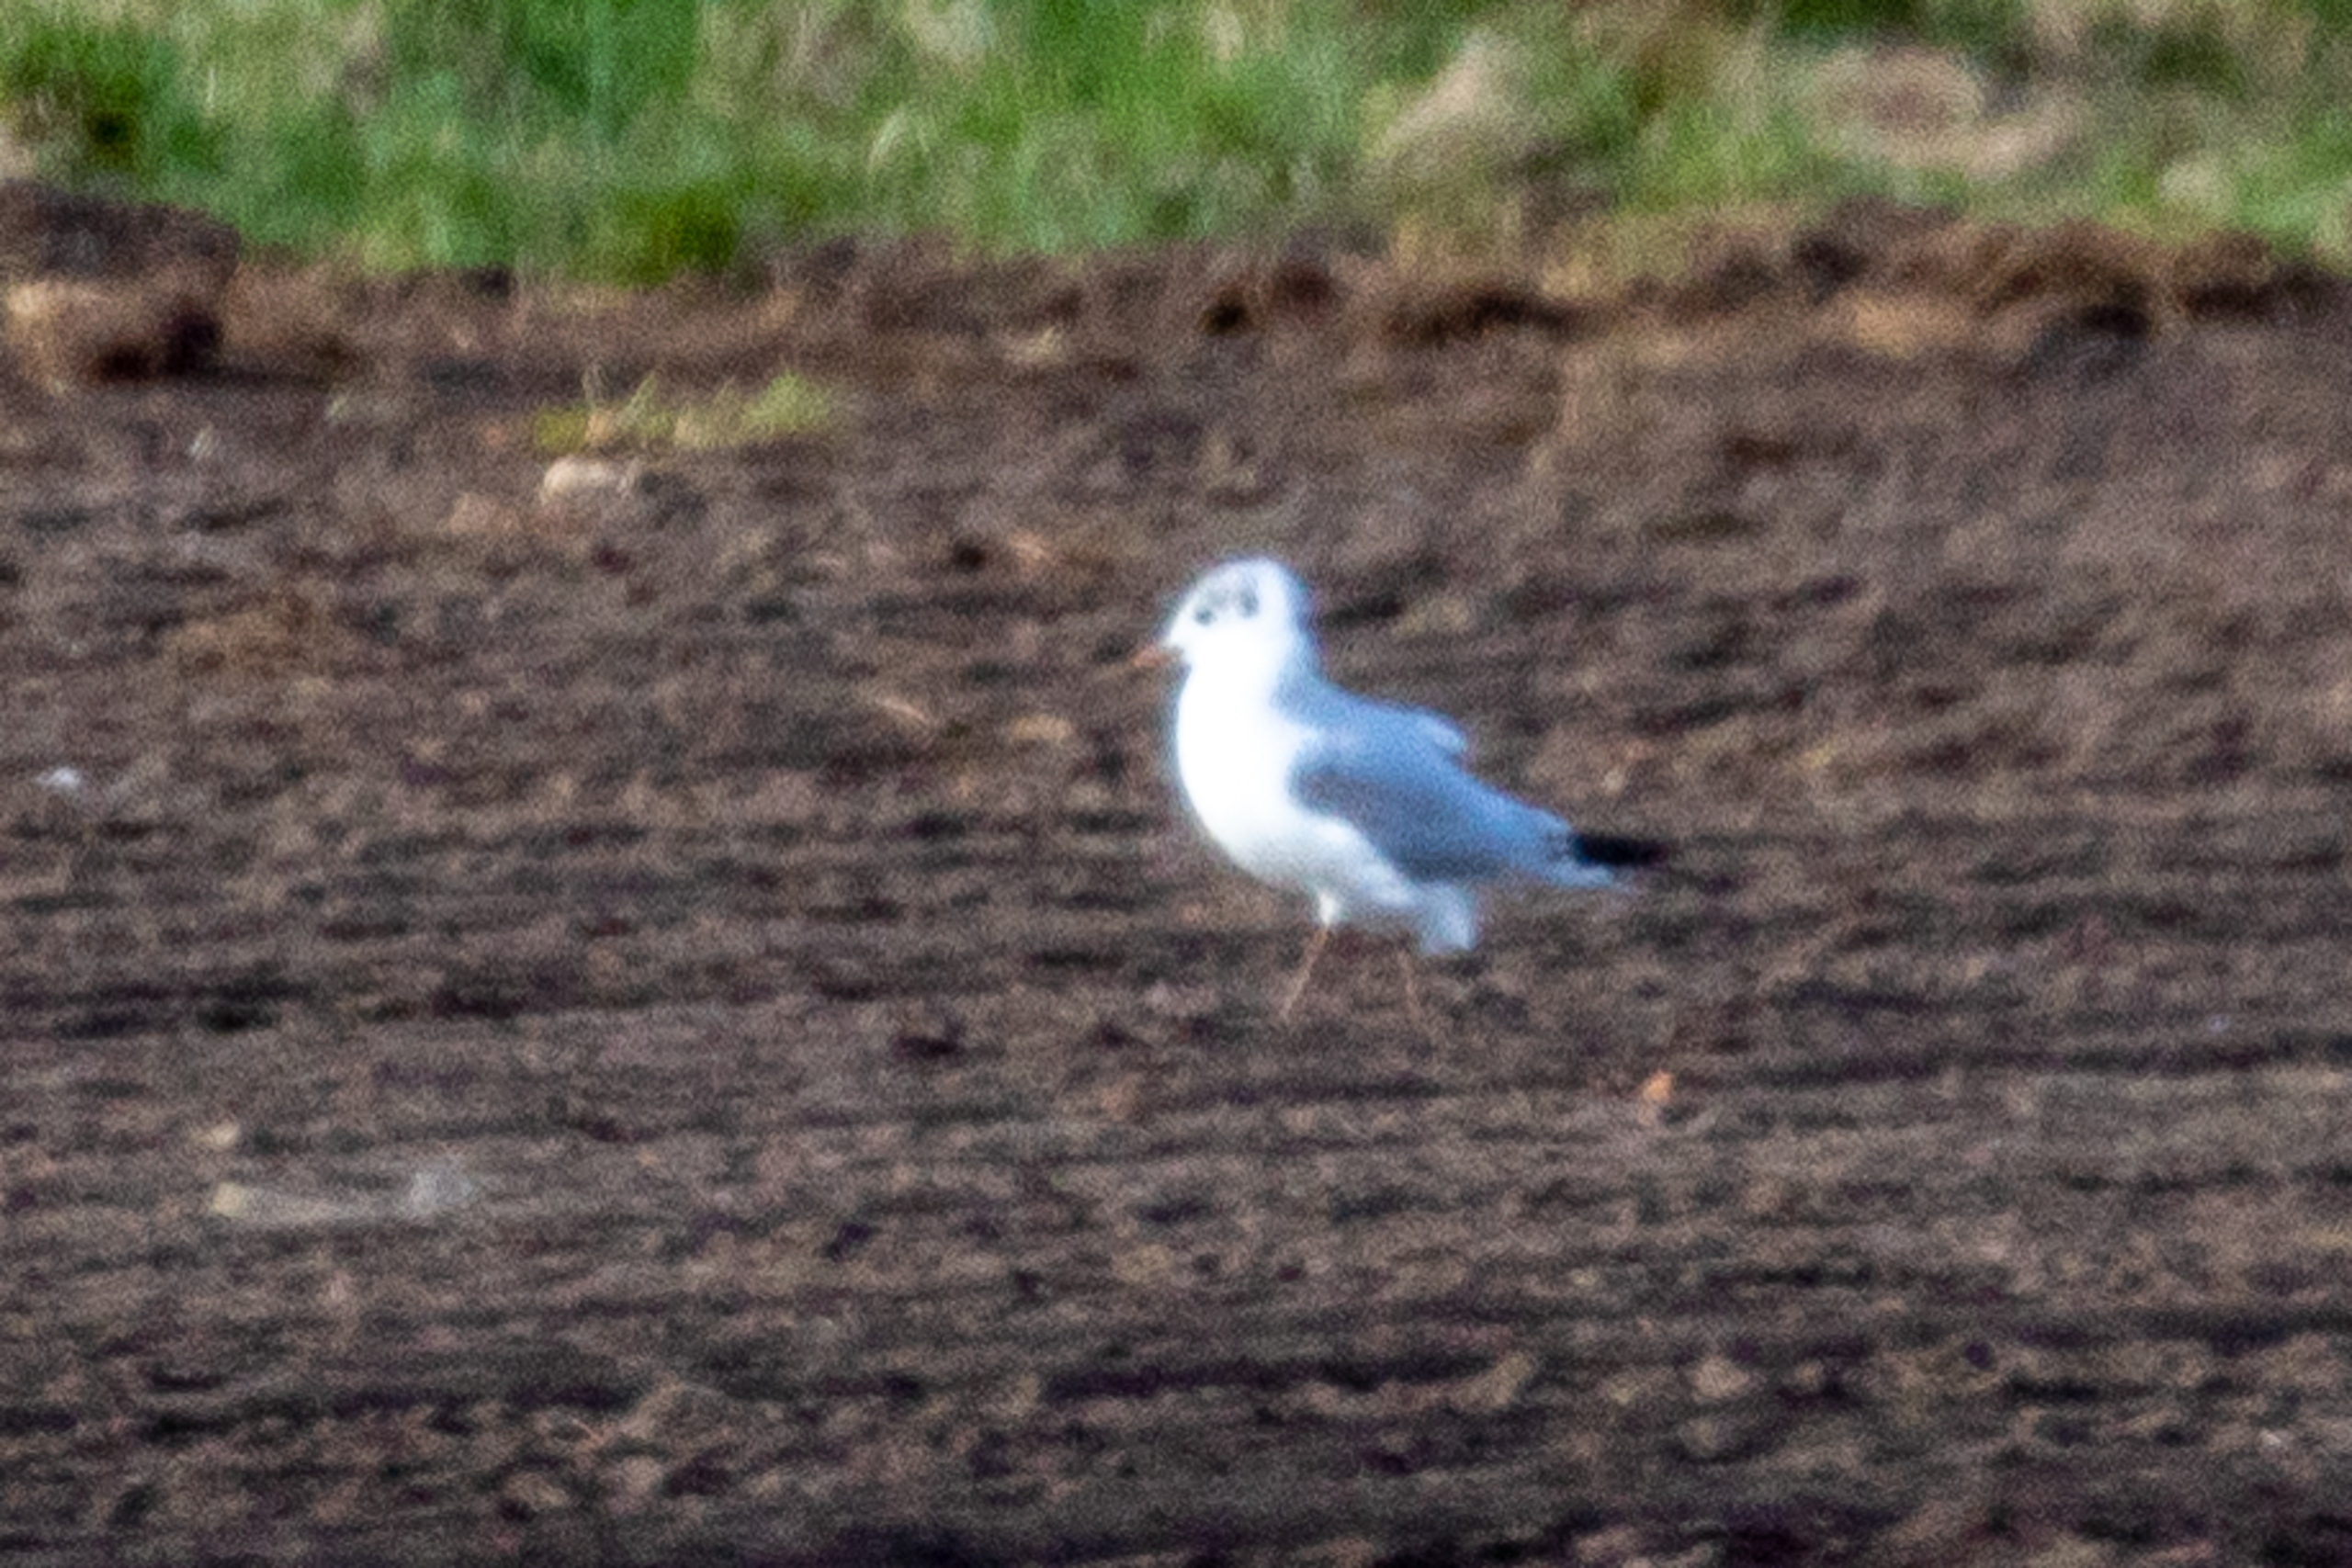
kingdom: Animalia
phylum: Chordata
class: Aves
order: Charadriiformes
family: Laridae
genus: Chroicocephalus
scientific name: Chroicocephalus ridibundus
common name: Hættemåge
